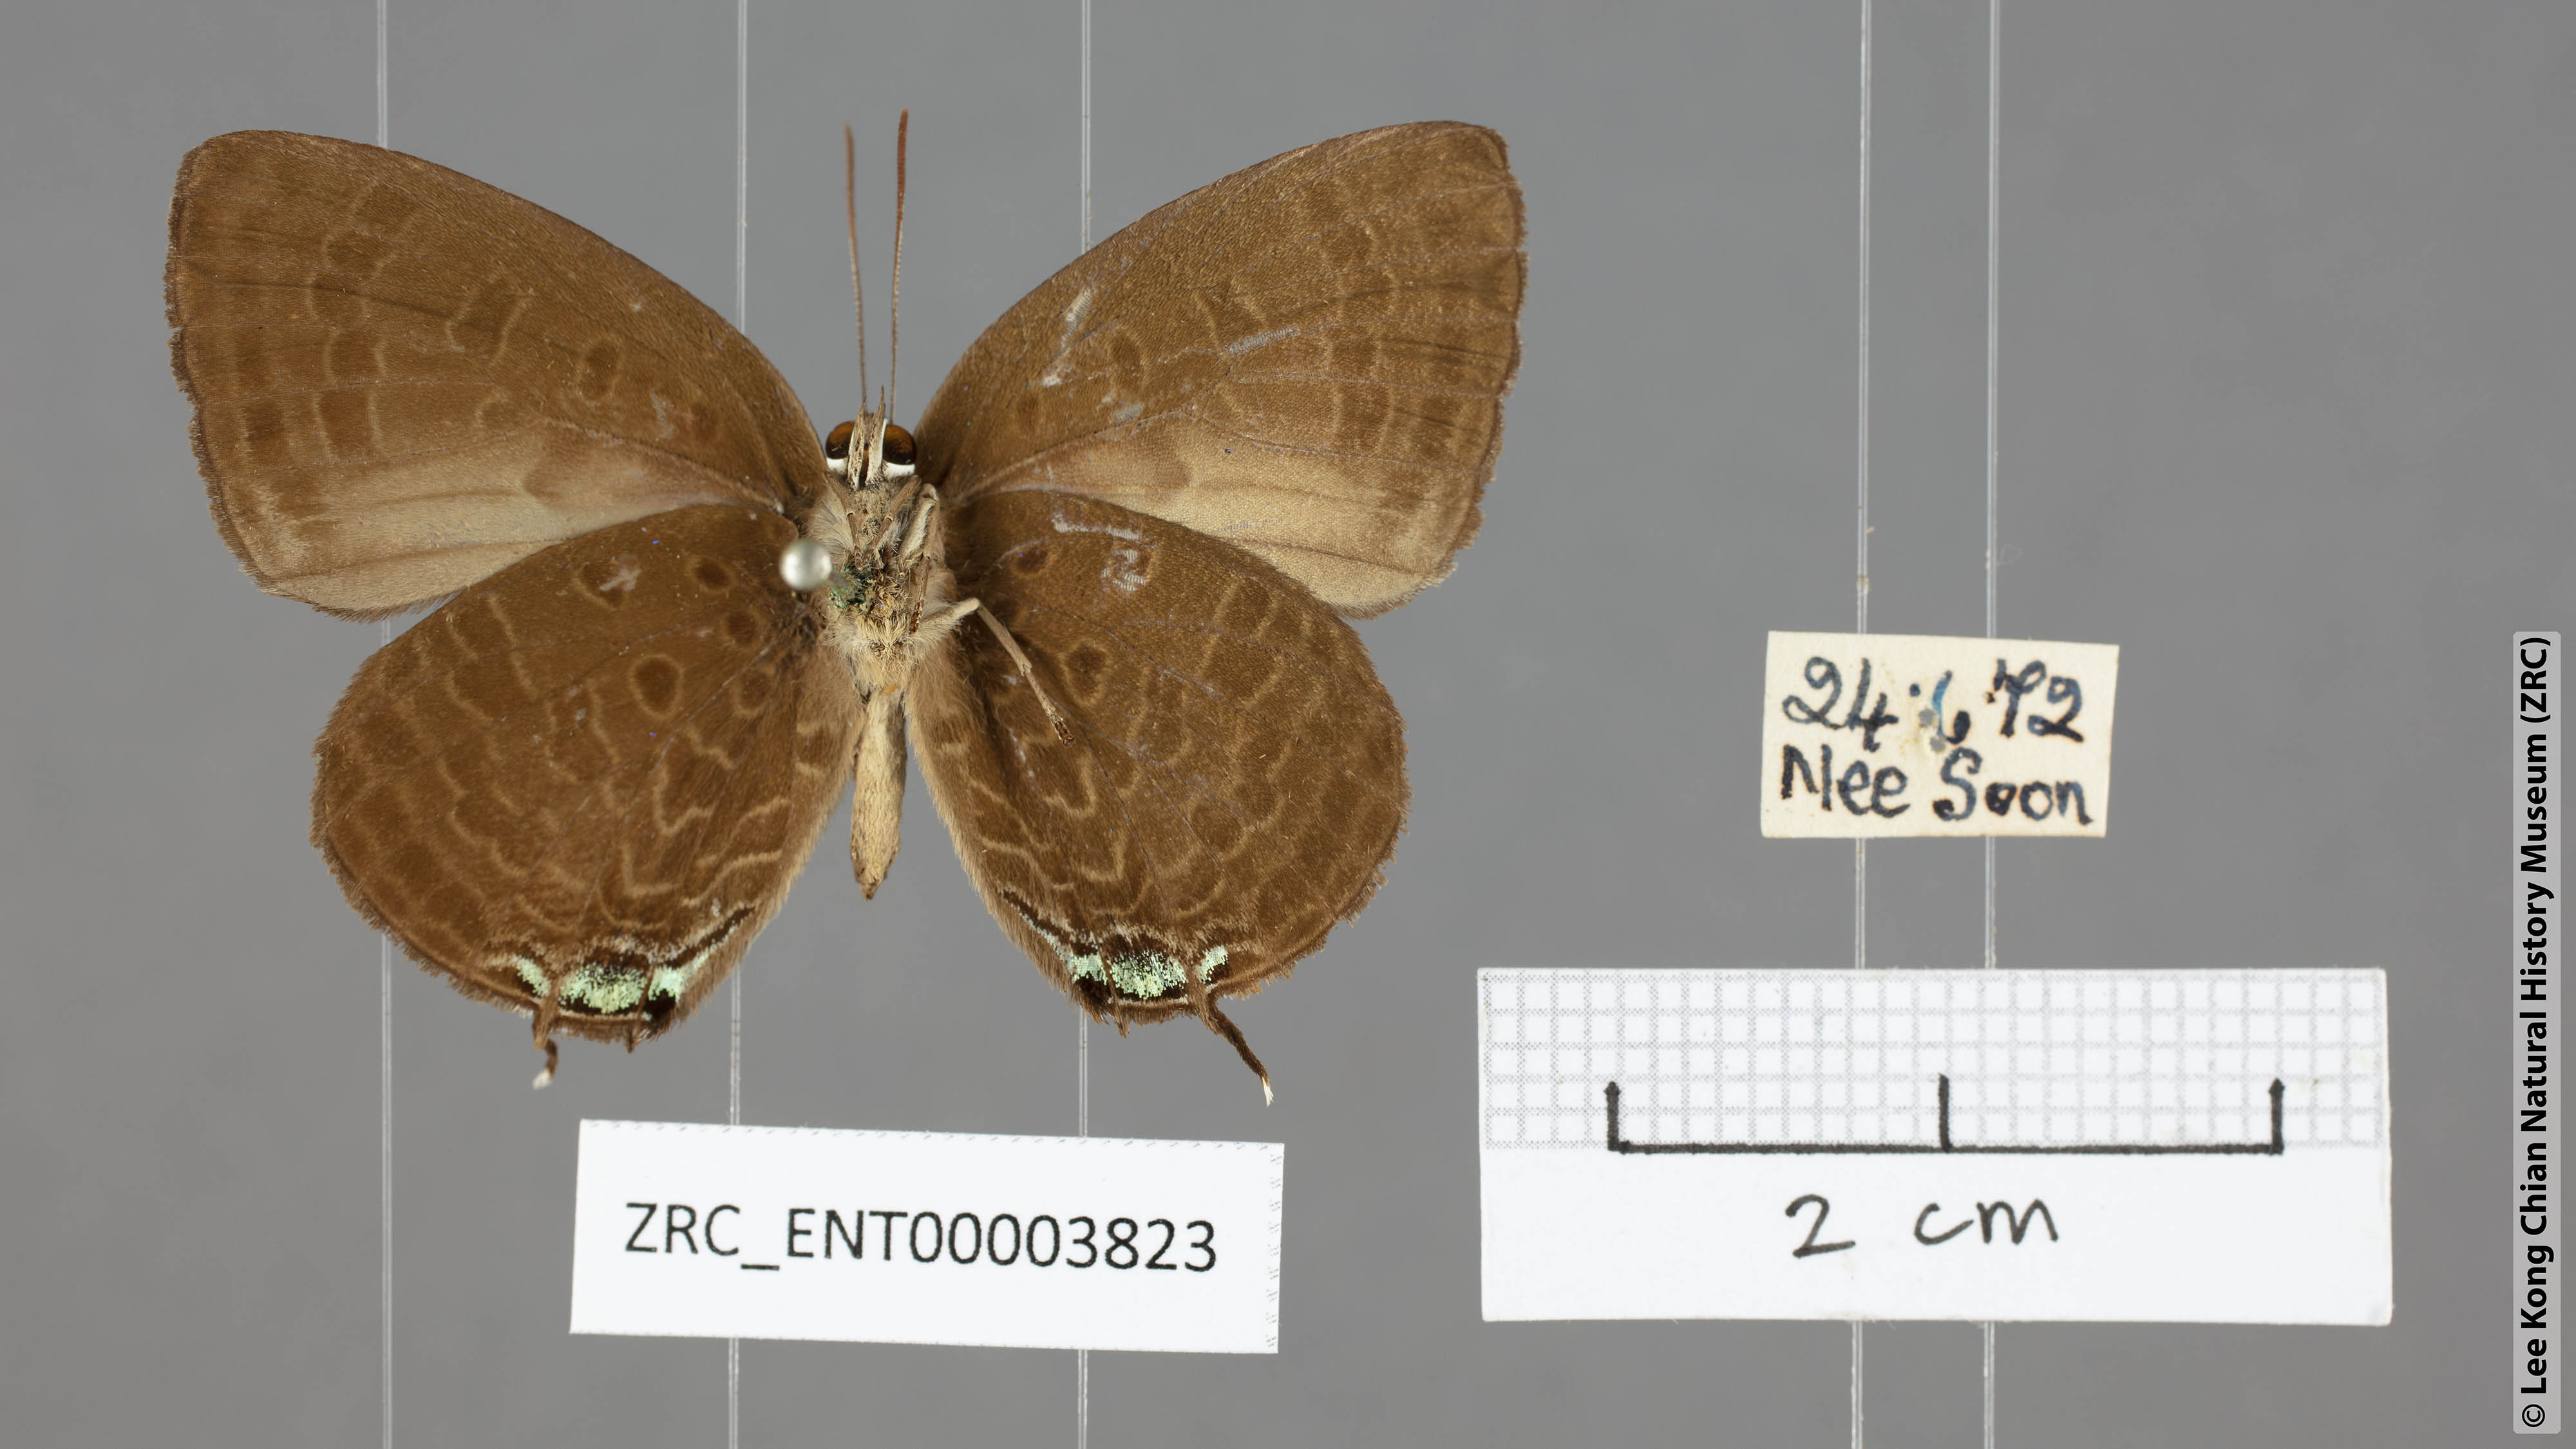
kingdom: Animalia
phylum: Arthropoda
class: Insecta
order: Lepidoptera
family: Lycaenidae
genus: Arhopala
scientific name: Arhopala agrata
